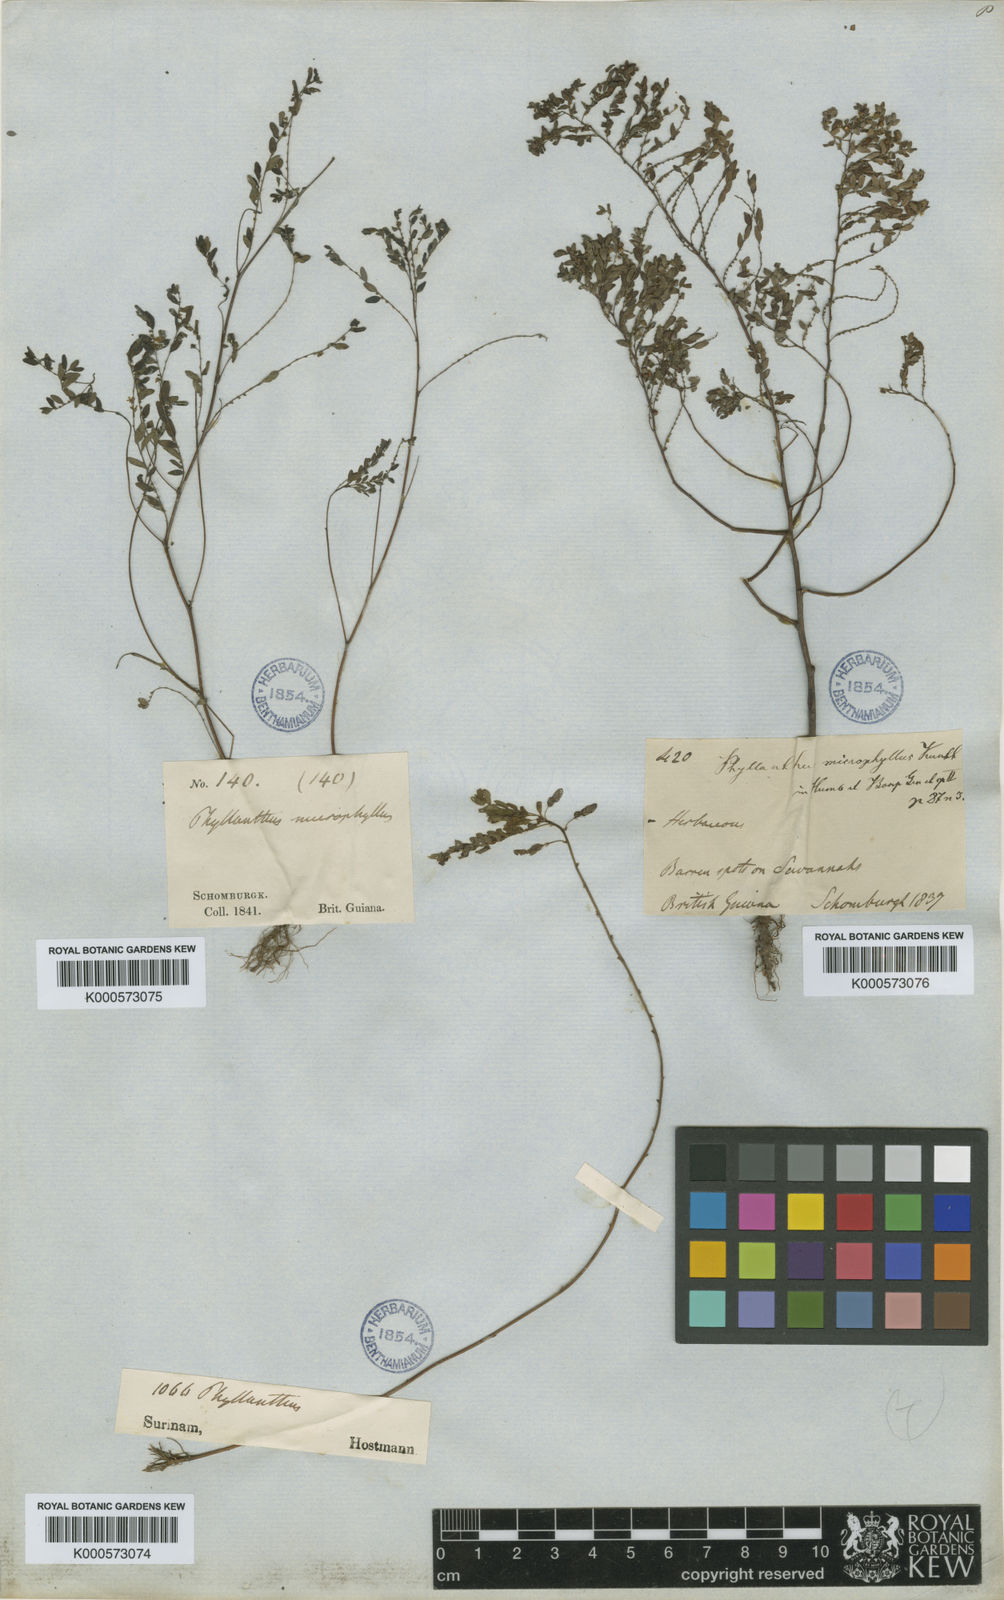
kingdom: Plantae
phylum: Tracheophyta
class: Magnoliopsida
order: Malpighiales
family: Phyllanthaceae
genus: Phyllanthus
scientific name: Phyllanthus stipulatus
